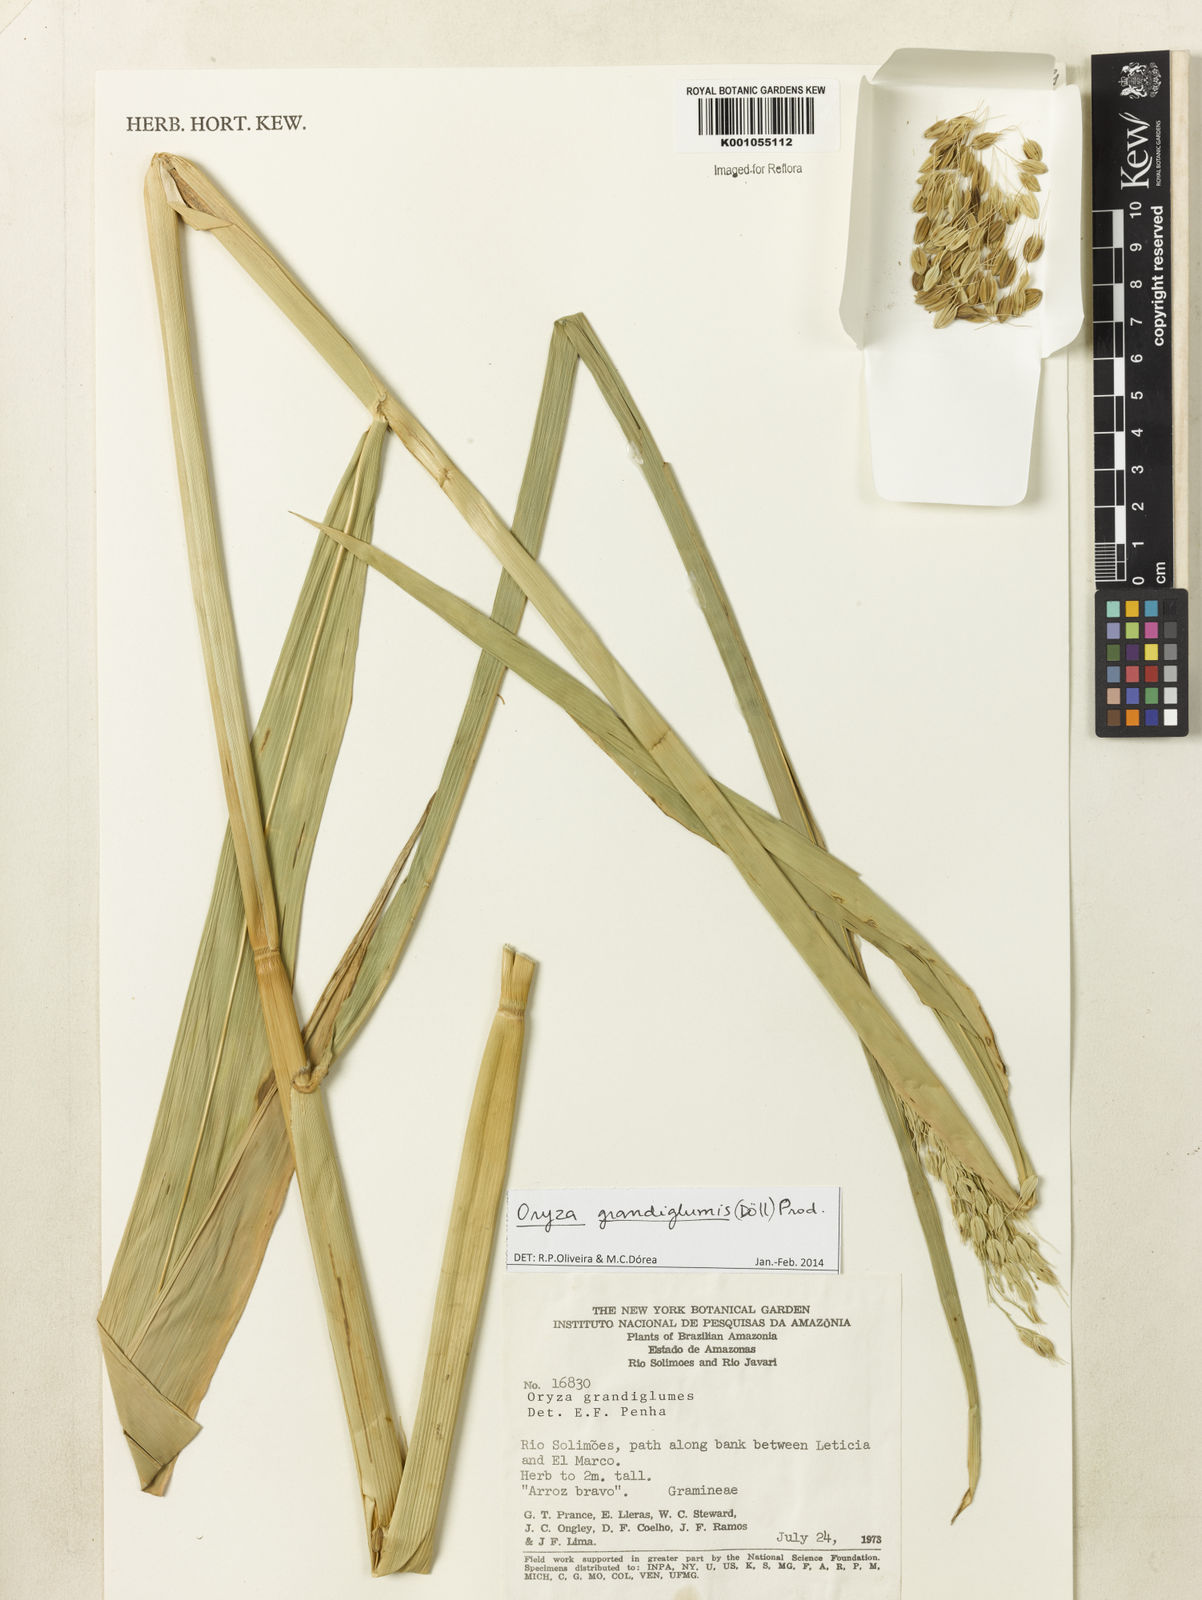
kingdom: Plantae
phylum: Tracheophyta
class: Liliopsida
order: Poales
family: Poaceae
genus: Oryza
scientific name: Oryza
